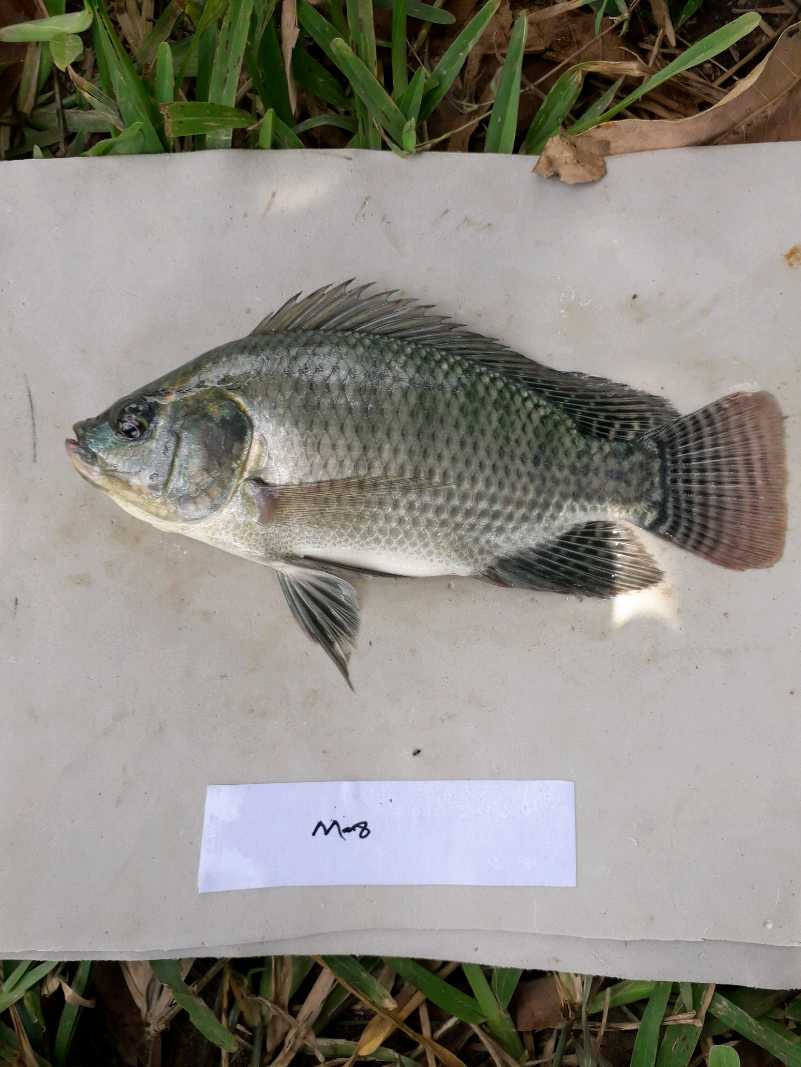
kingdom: Animalia
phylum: Chordata
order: Perciformes
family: Cichlidae
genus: Oreochromis
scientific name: Oreochromis niloticus
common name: Nile tilapia
